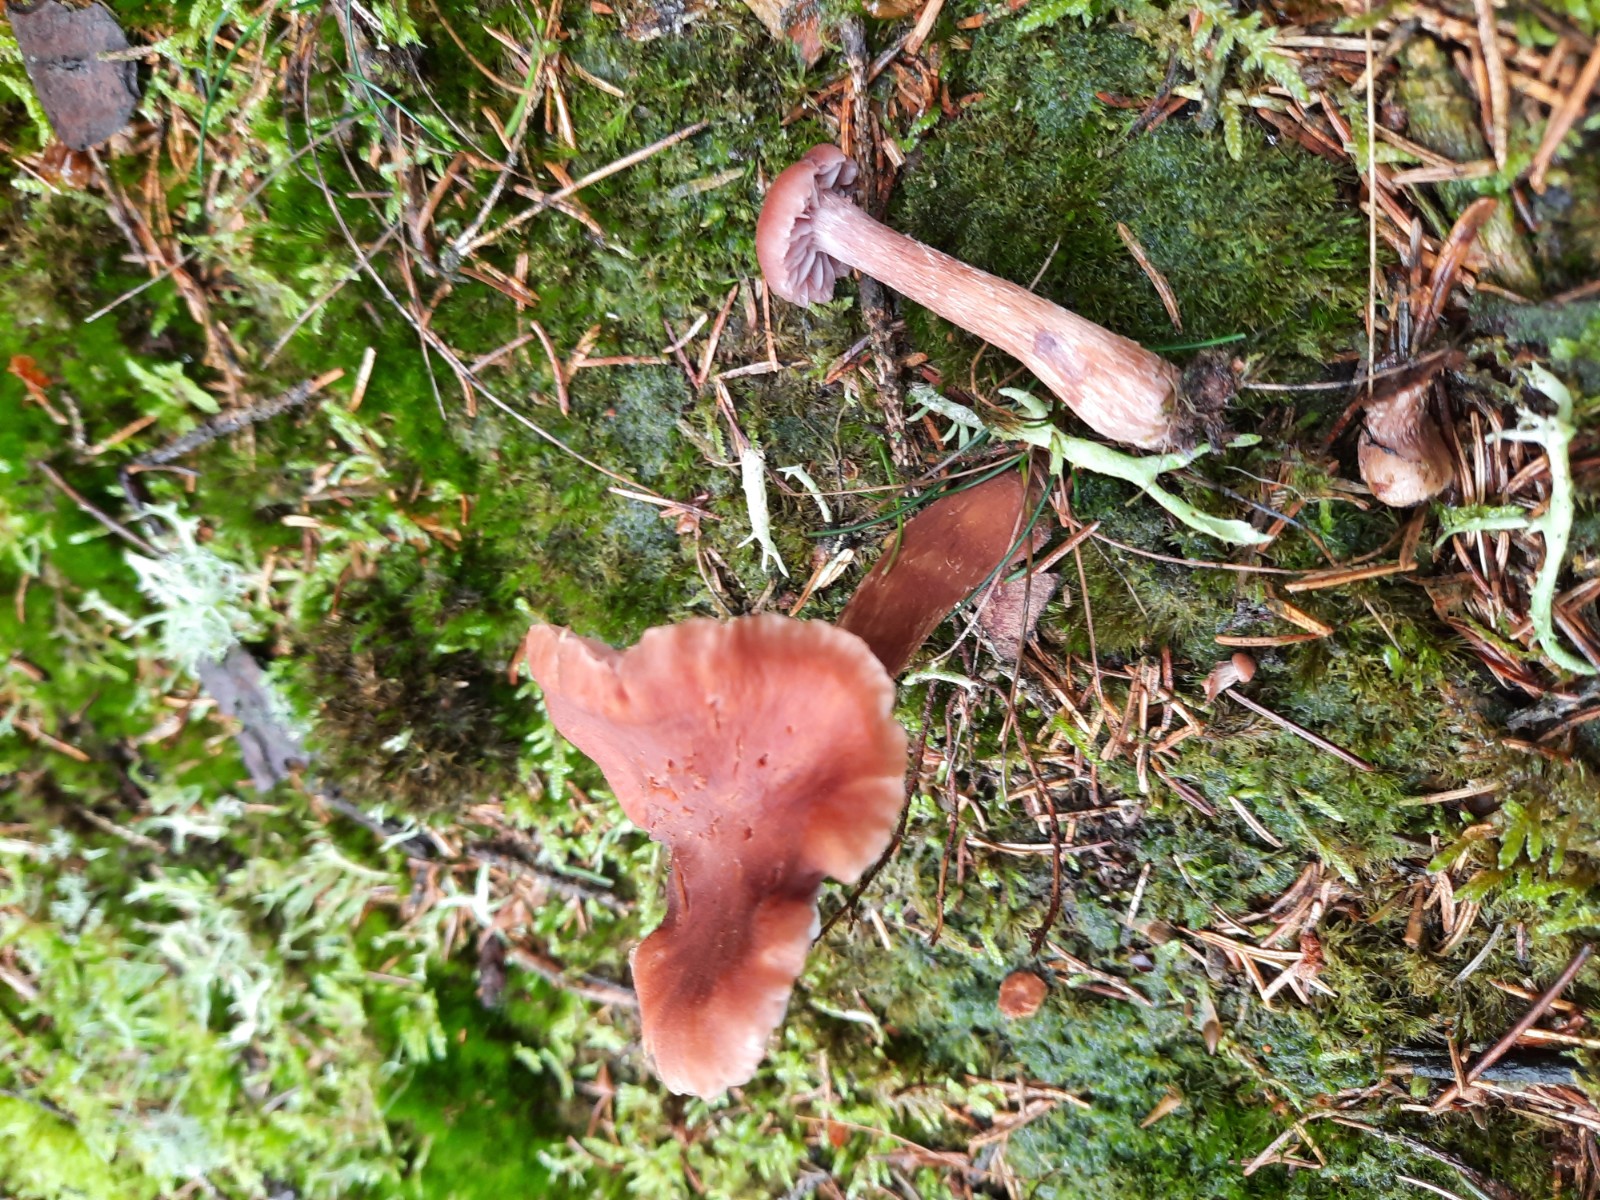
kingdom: Fungi
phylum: Basidiomycota
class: Agaricomycetes
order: Agaricales
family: Hydnangiaceae
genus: Laccaria
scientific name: Laccaria bicolor
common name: tvefarvet ametysthat
